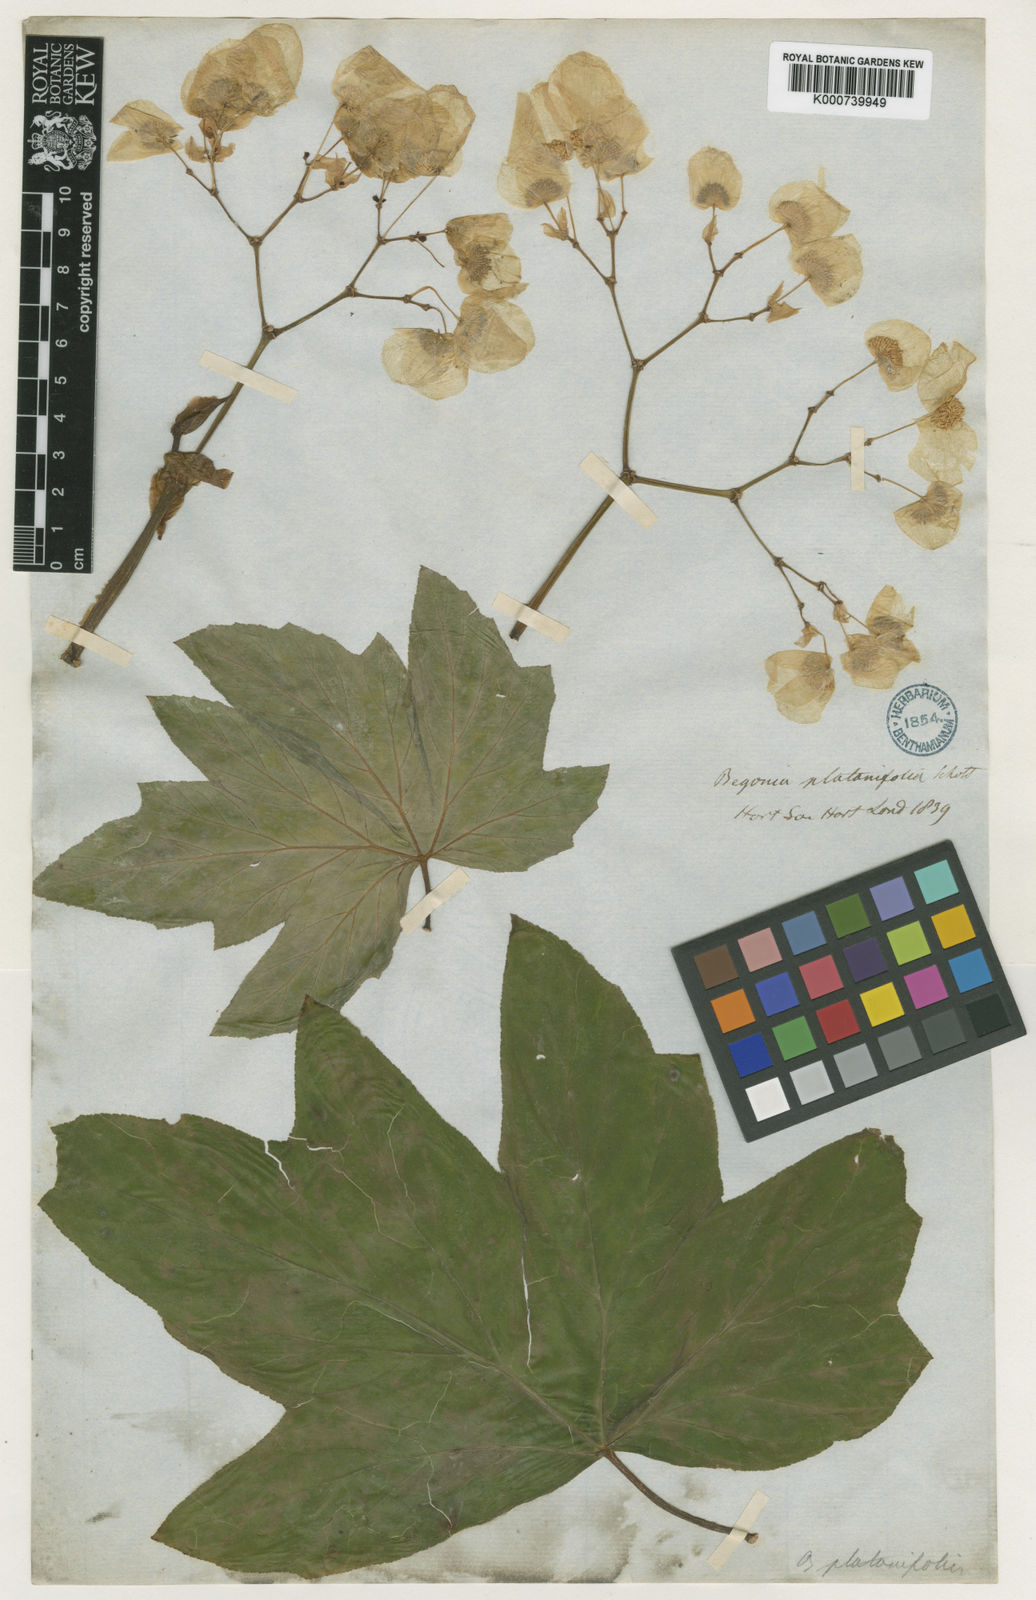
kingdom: Plantae
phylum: Tracheophyta
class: Magnoliopsida
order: Cucurbitales
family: Begoniaceae
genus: Begonia
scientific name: Begonia platanifolia
